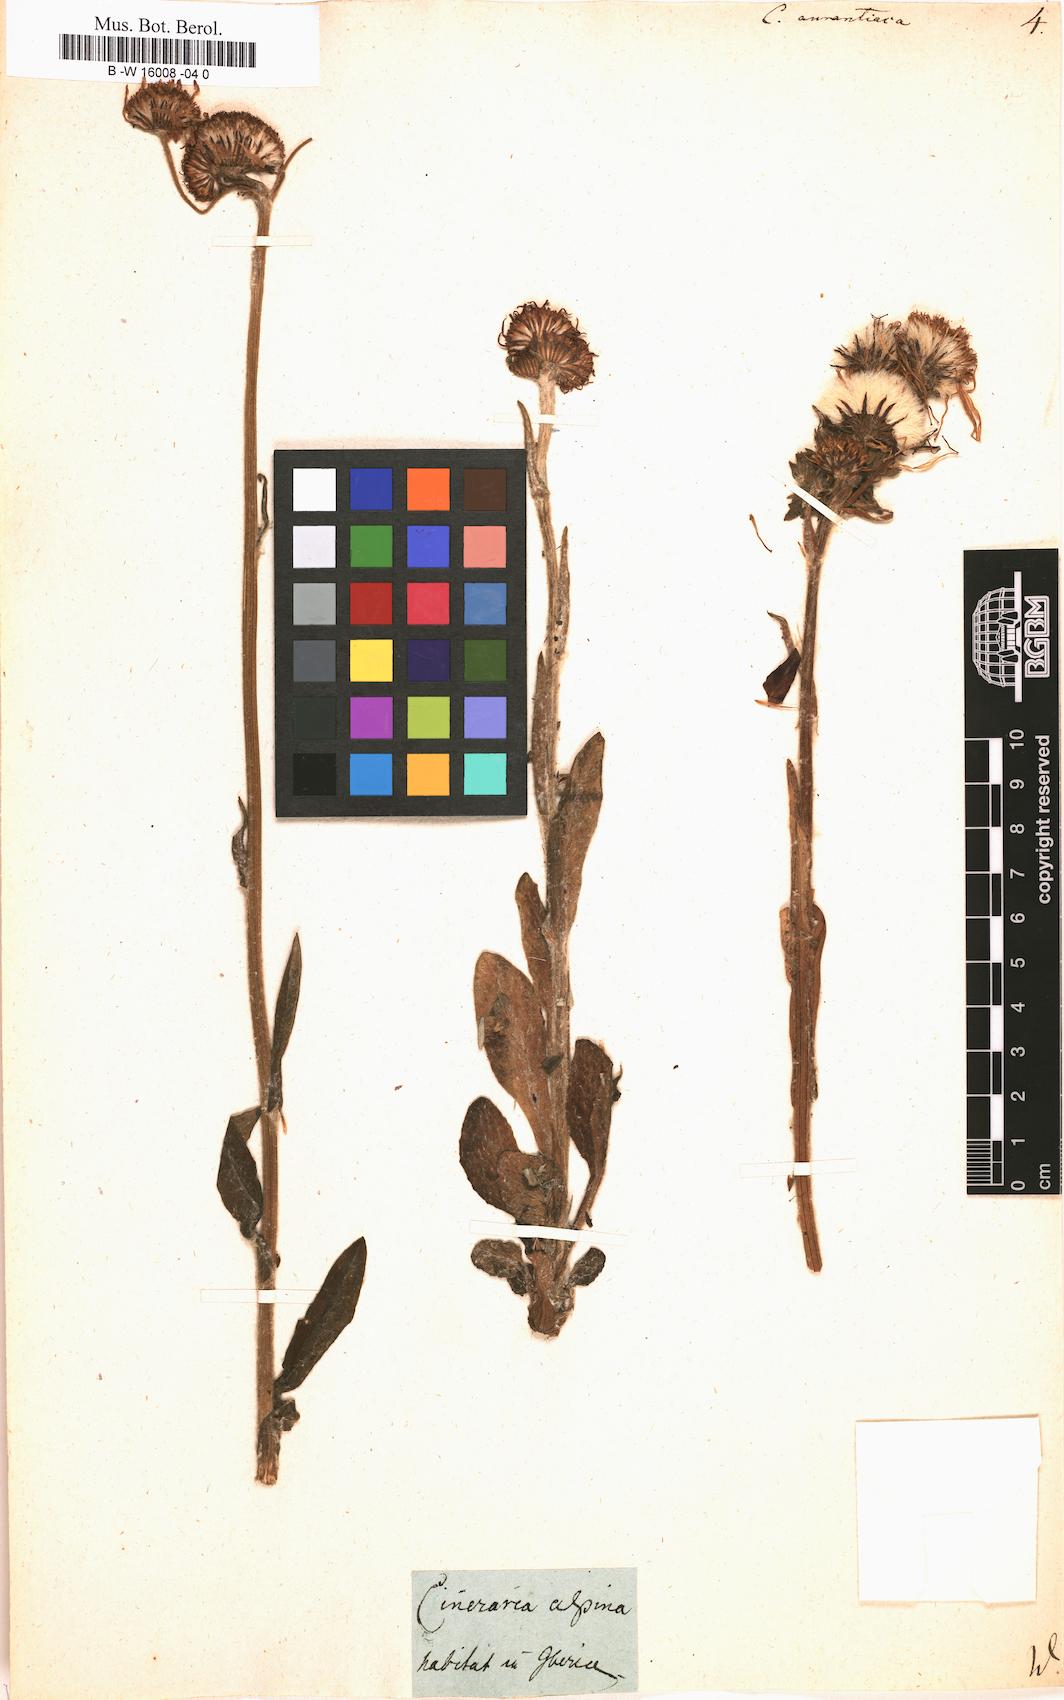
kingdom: Plantae
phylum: Tracheophyta
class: Magnoliopsida
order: Asterales
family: Asteraceae
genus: Tephroseris
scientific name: Tephroseris
